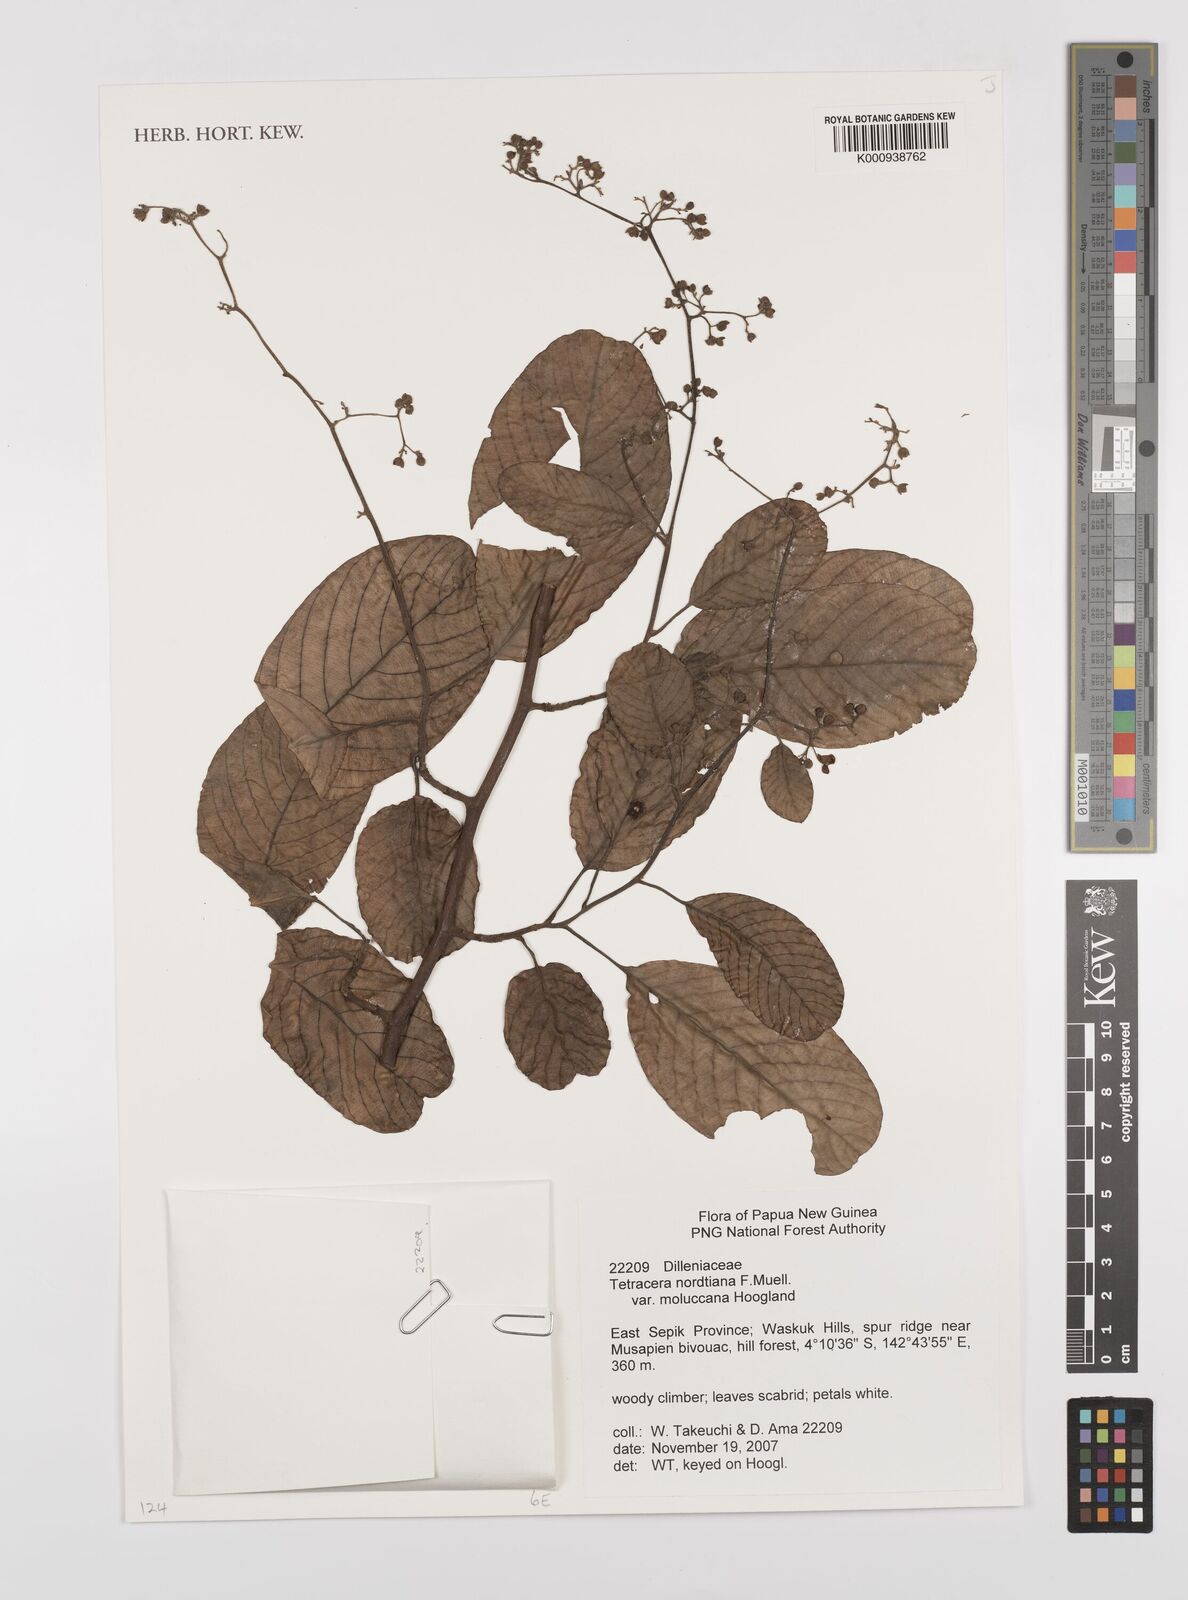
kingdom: Plantae
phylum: Tracheophyta
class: Magnoliopsida
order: Dilleniales
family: Dilleniaceae
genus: Tetracera
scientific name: Tetracera nordtiana
